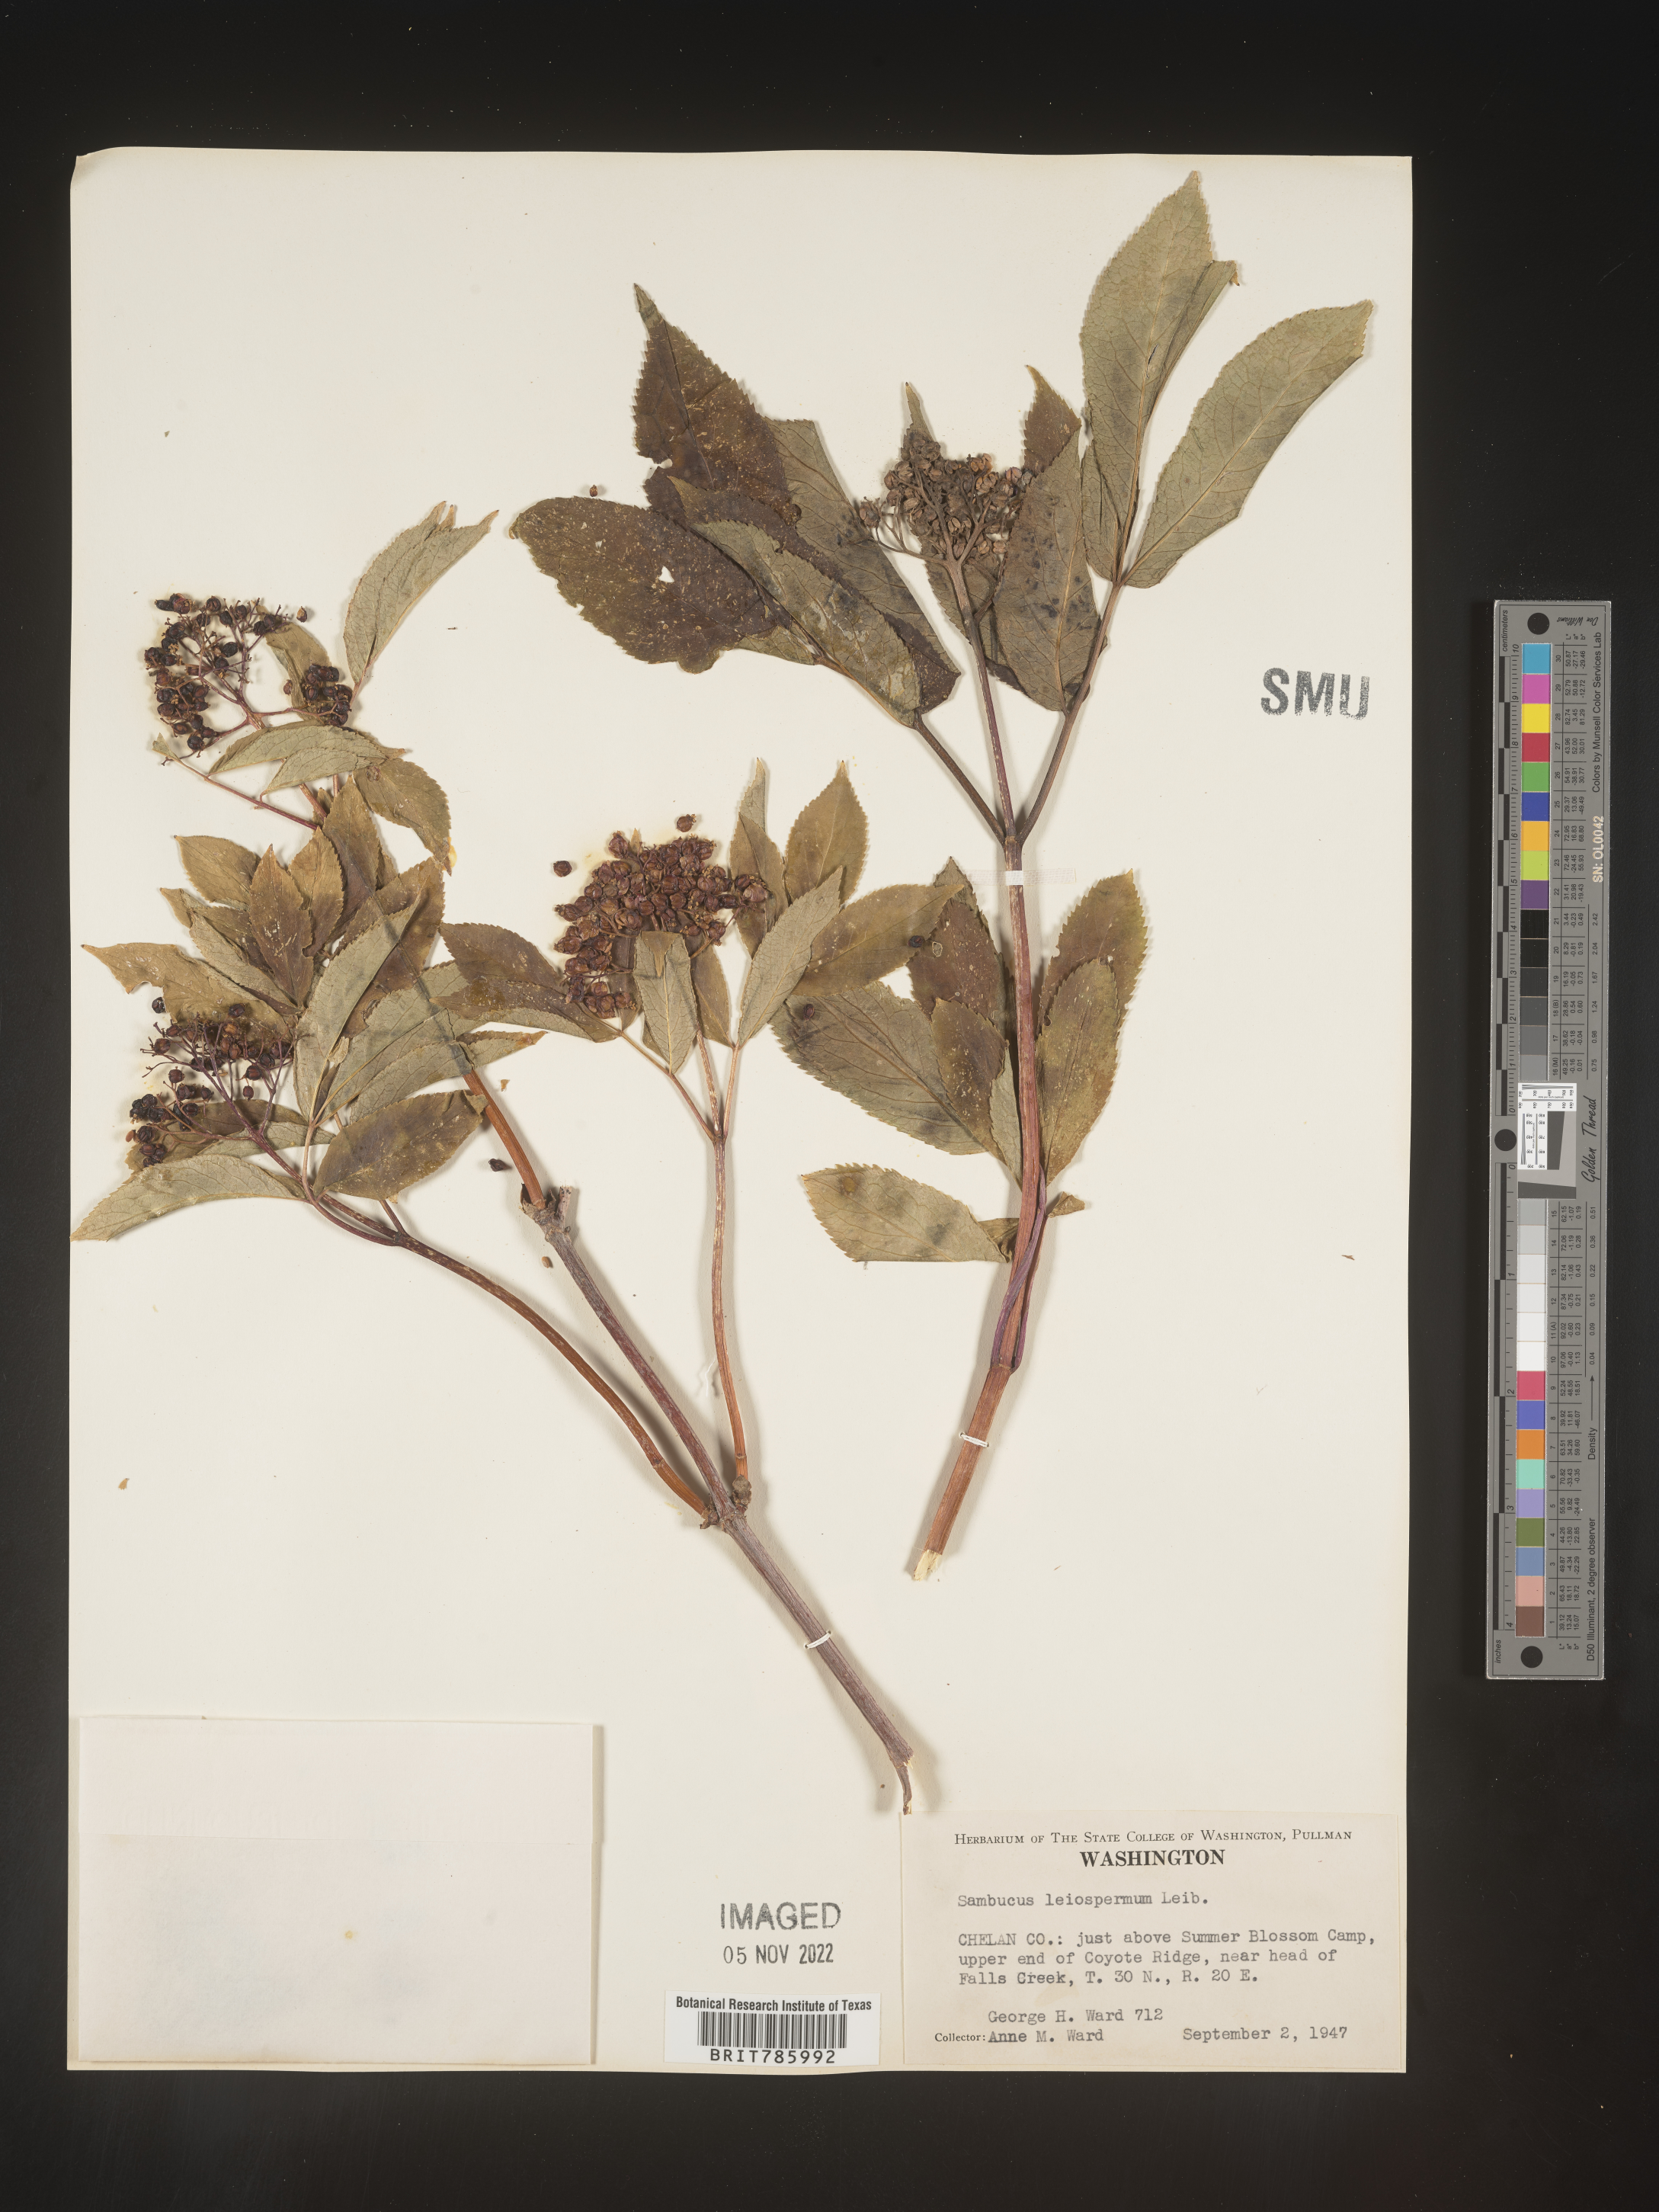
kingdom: Plantae
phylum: Tracheophyta
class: Magnoliopsida
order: Dipsacales
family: Viburnaceae
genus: Sambucus
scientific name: Sambucus
